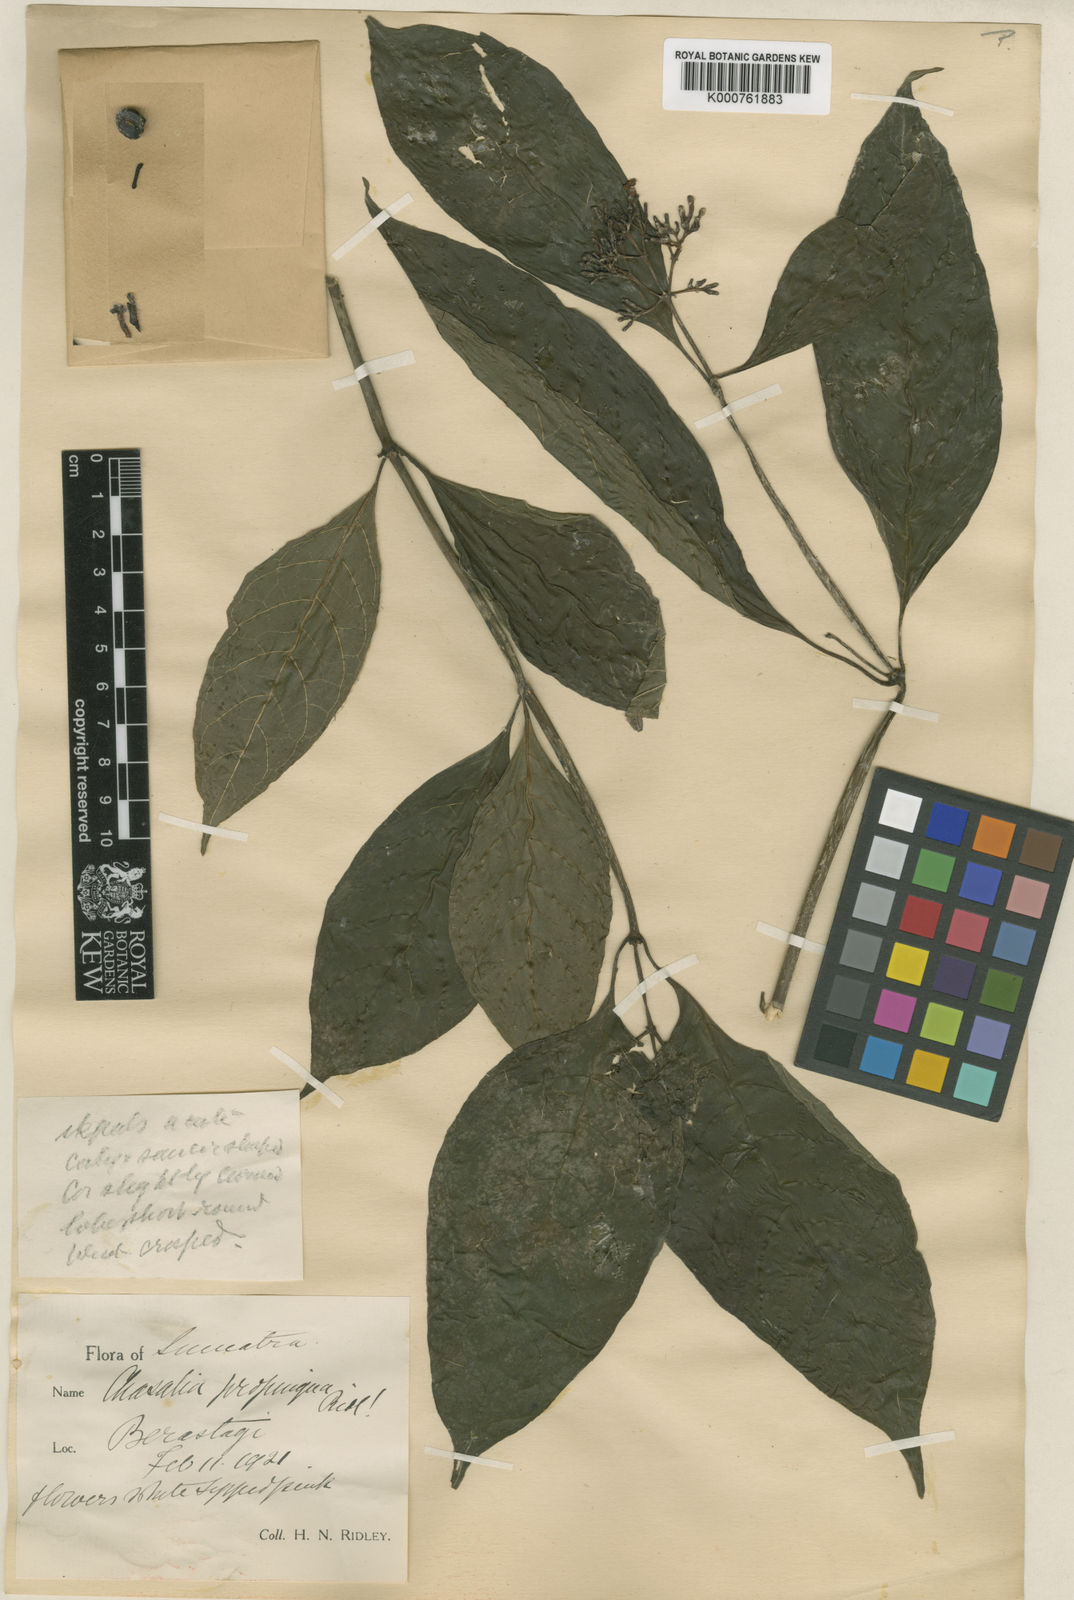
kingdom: Plantae
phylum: Tracheophyta
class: Magnoliopsida
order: Gentianales
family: Rubiaceae
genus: Chassalia
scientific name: Chassalia propinqua
